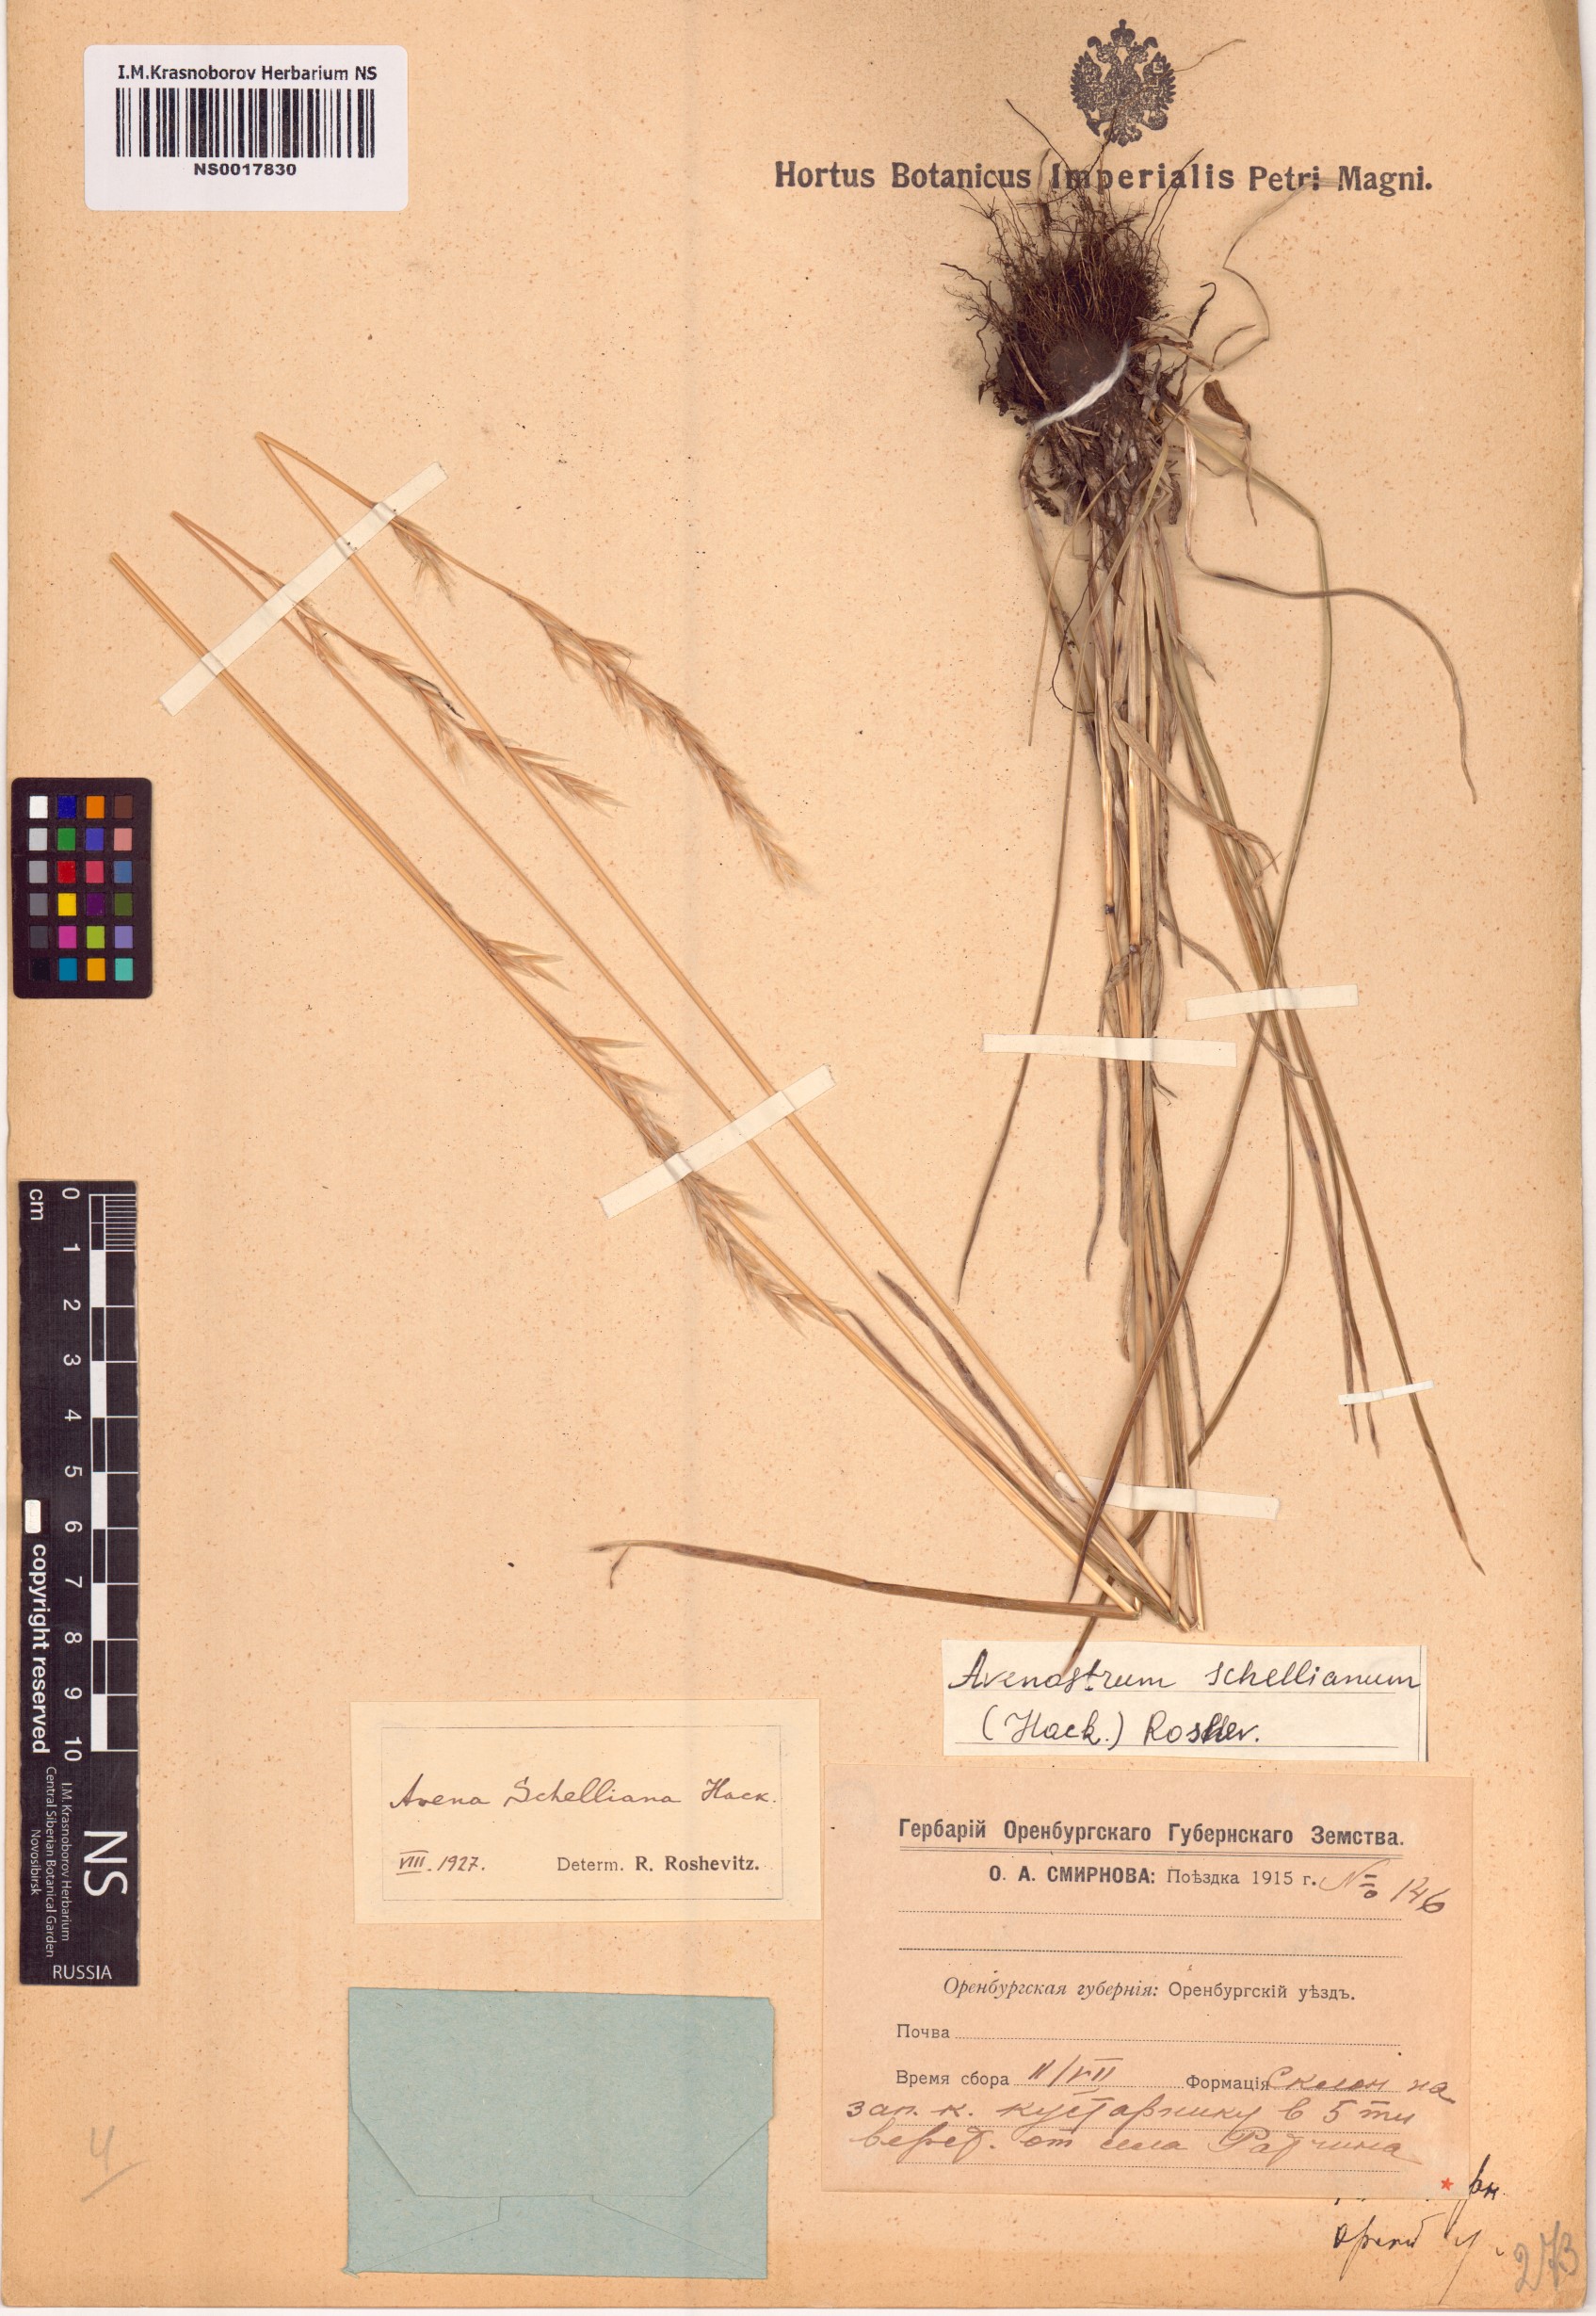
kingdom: Plantae
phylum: Tracheophyta
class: Liliopsida
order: Poales
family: Poaceae
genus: Helictochloa
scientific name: Helictochloa hookeri
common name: Hooker's alpine oatgrass
